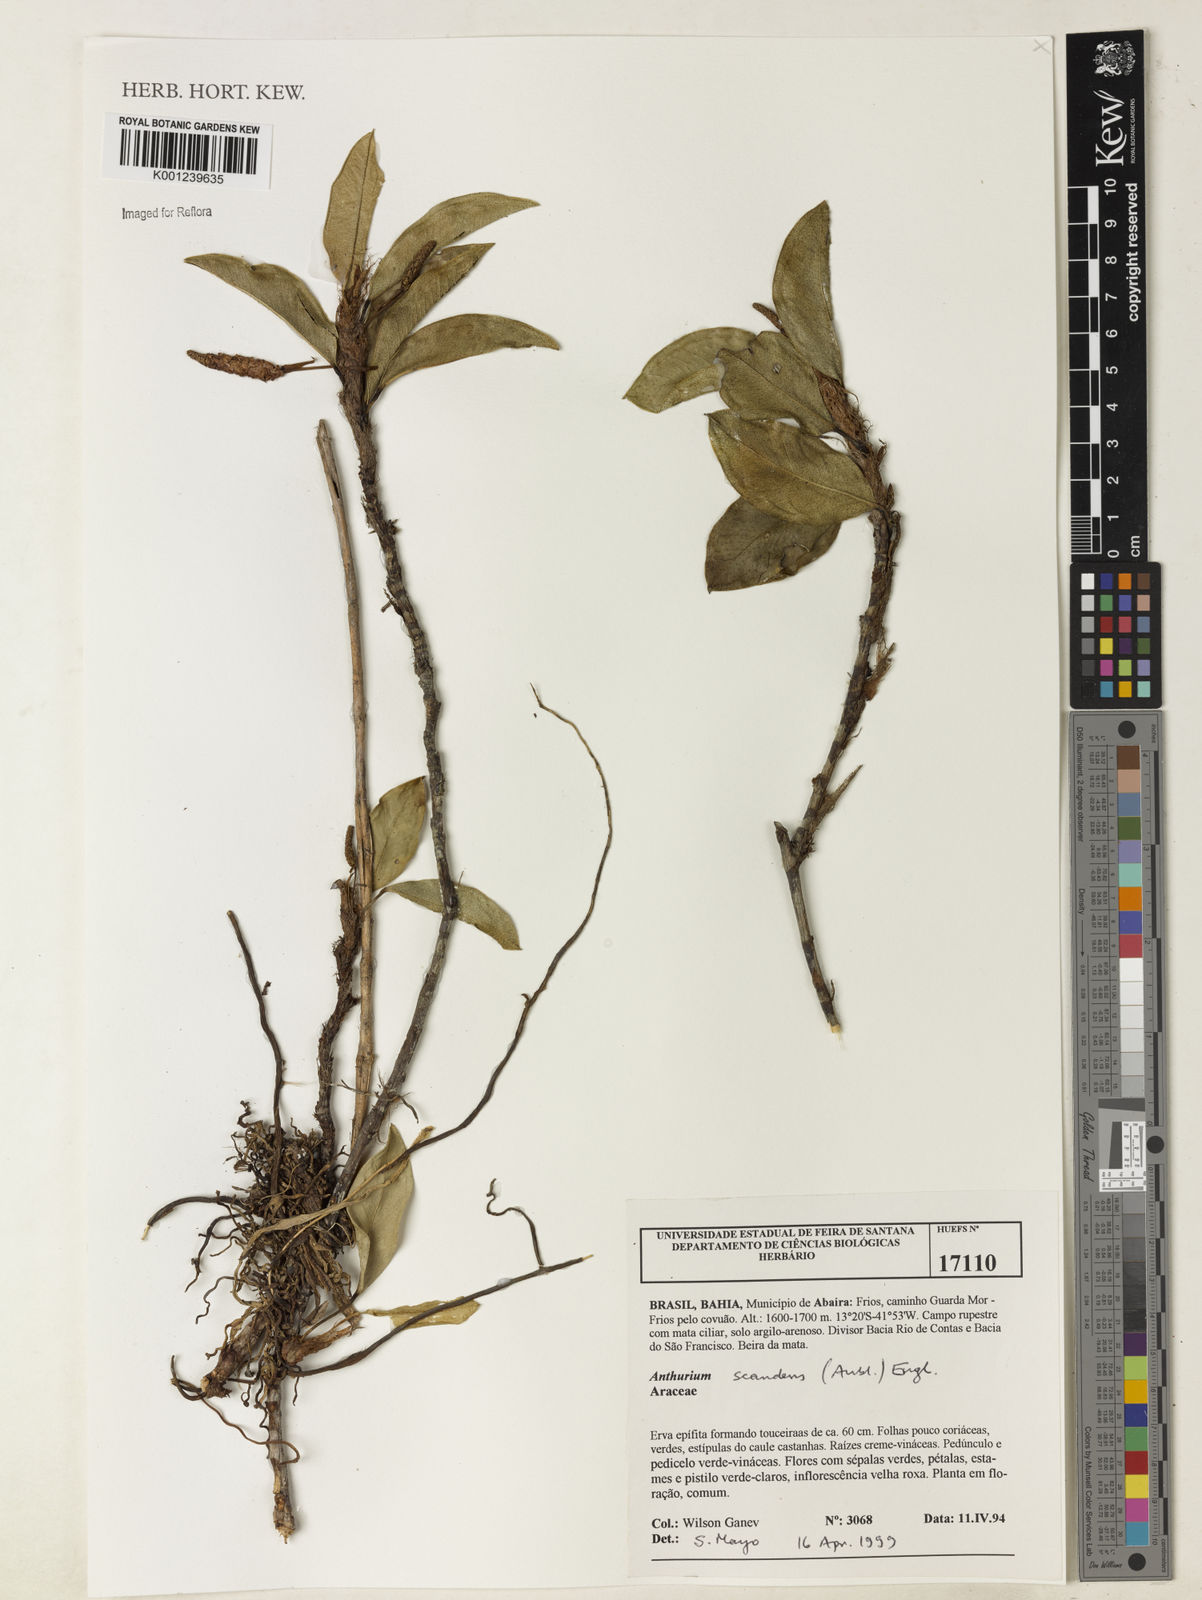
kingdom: Plantae
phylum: Tracheophyta
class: Liliopsida
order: Alismatales
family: Araceae
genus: Anthurium
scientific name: Anthurium scandens
